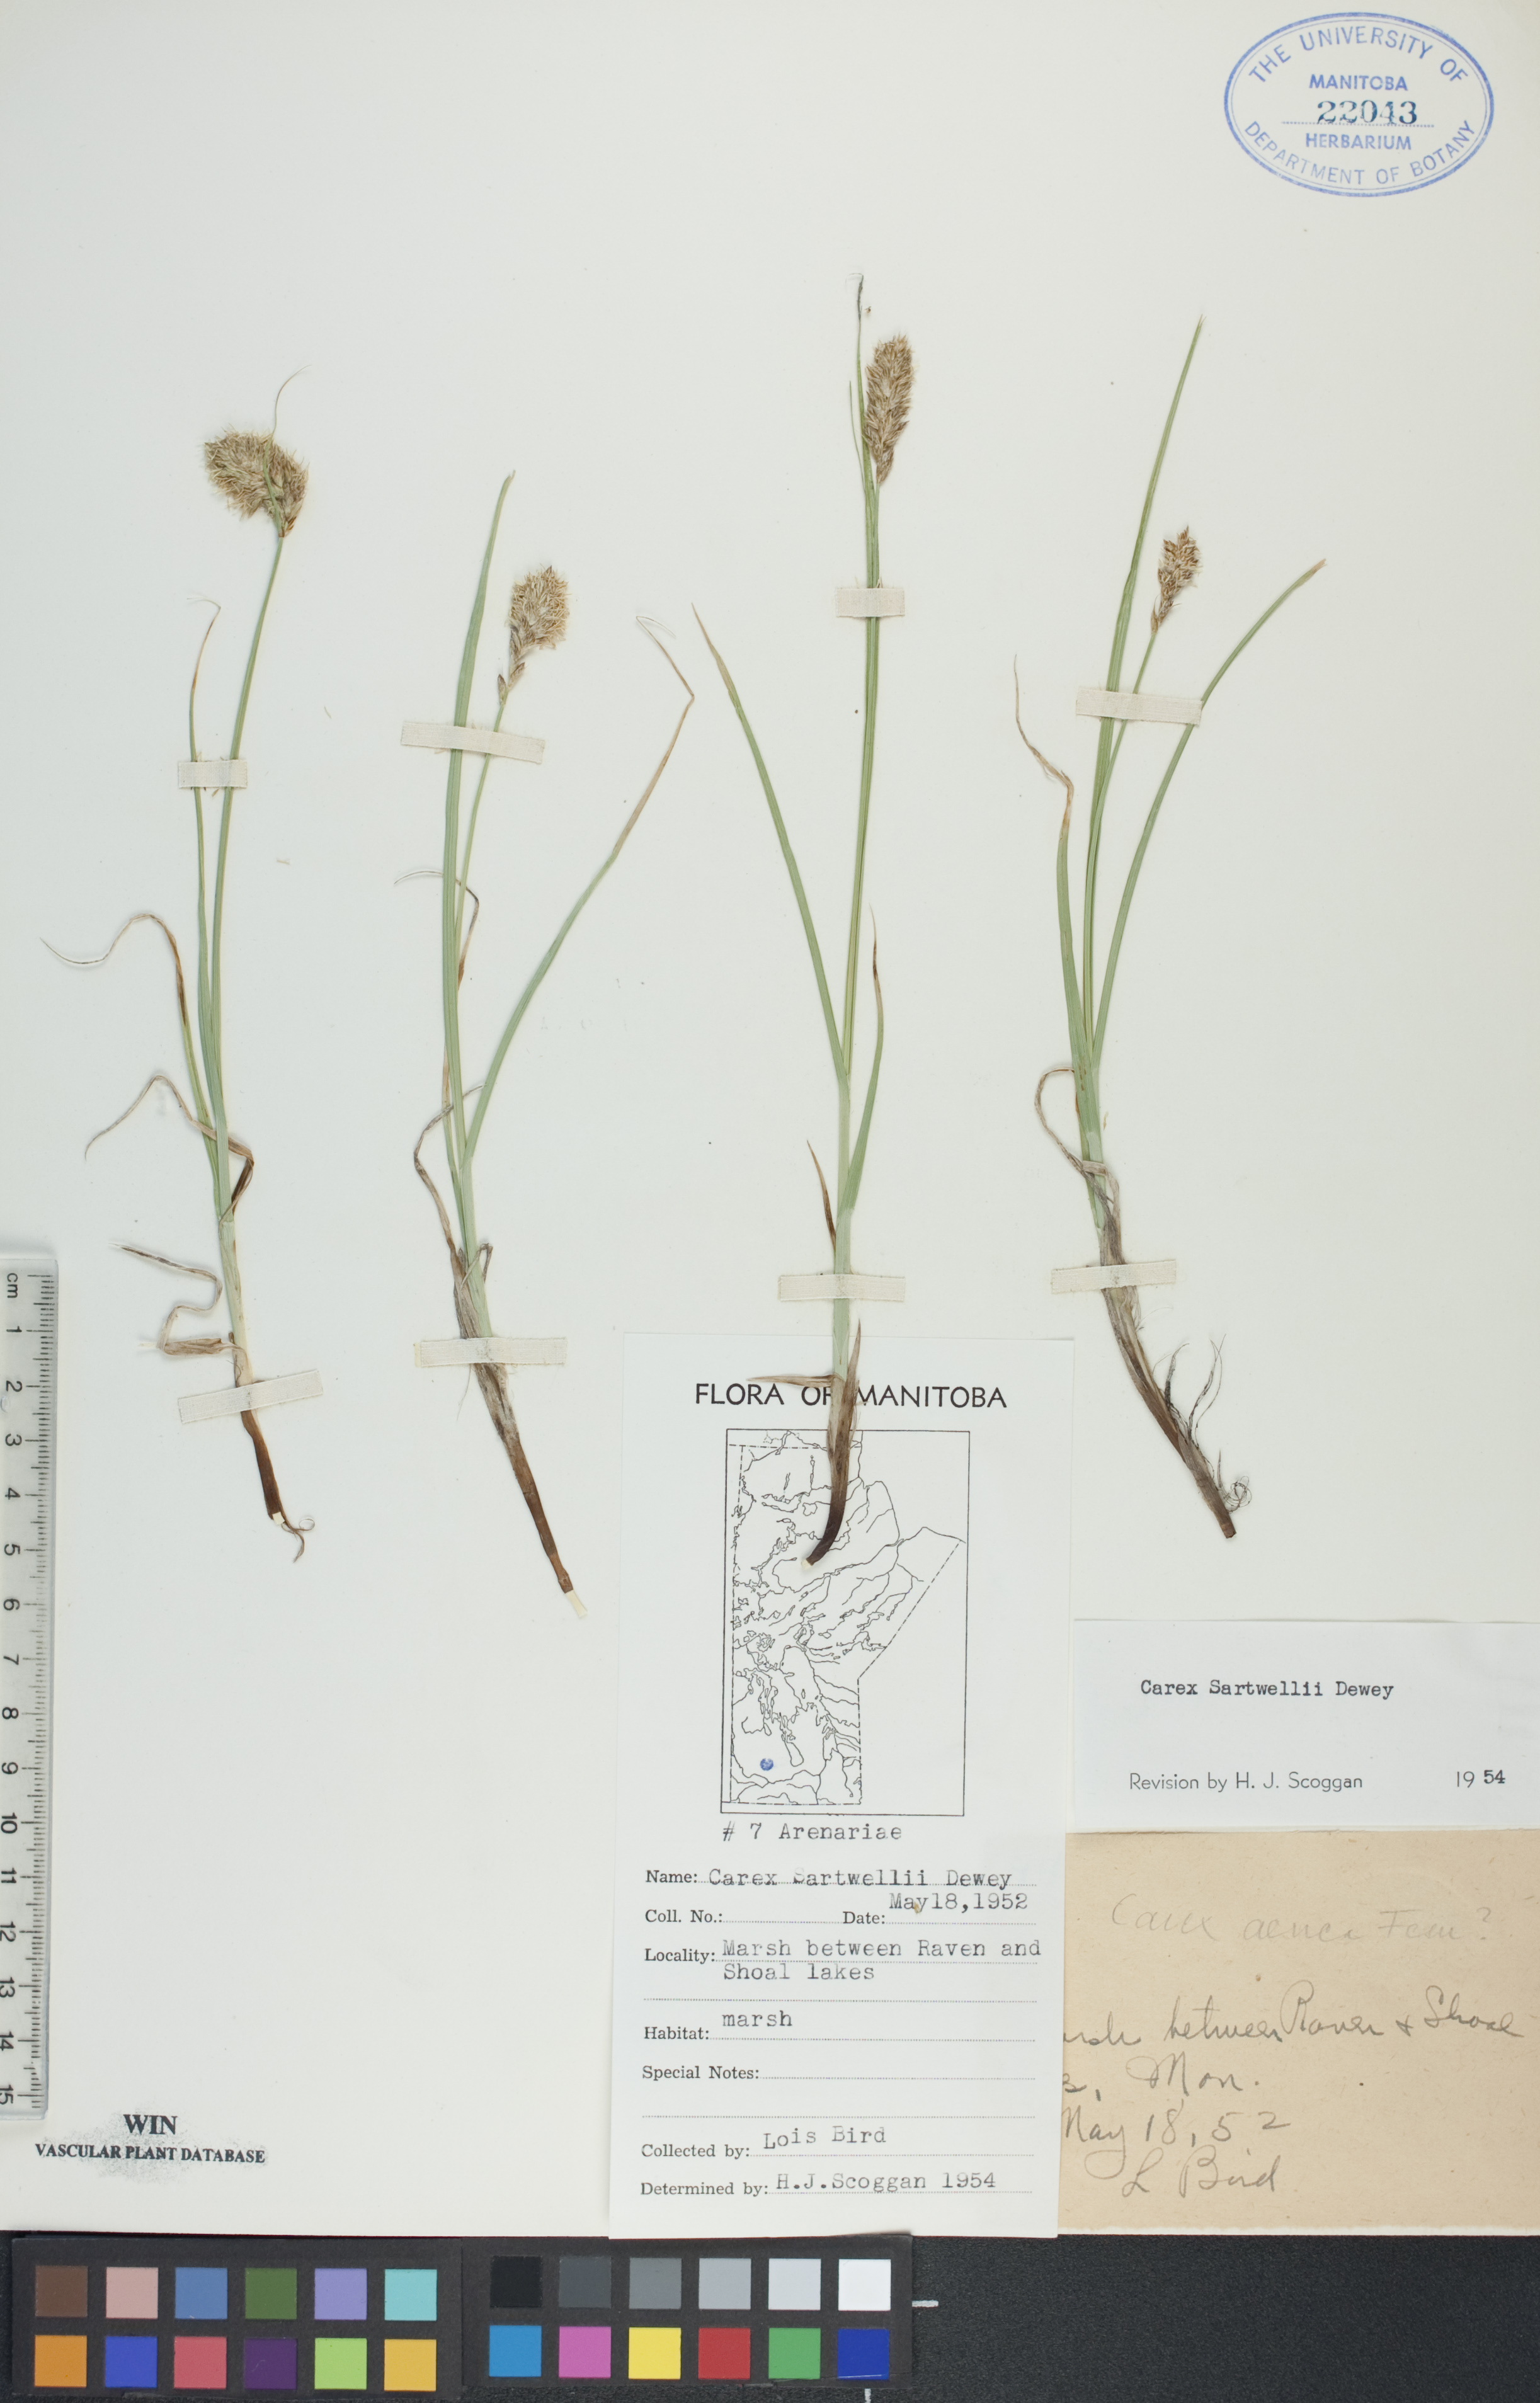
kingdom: Plantae
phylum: Tracheophyta
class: Liliopsida
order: Poales
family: Cyperaceae
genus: Carex
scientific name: Carex sartwellii
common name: Sartwell's sedge
